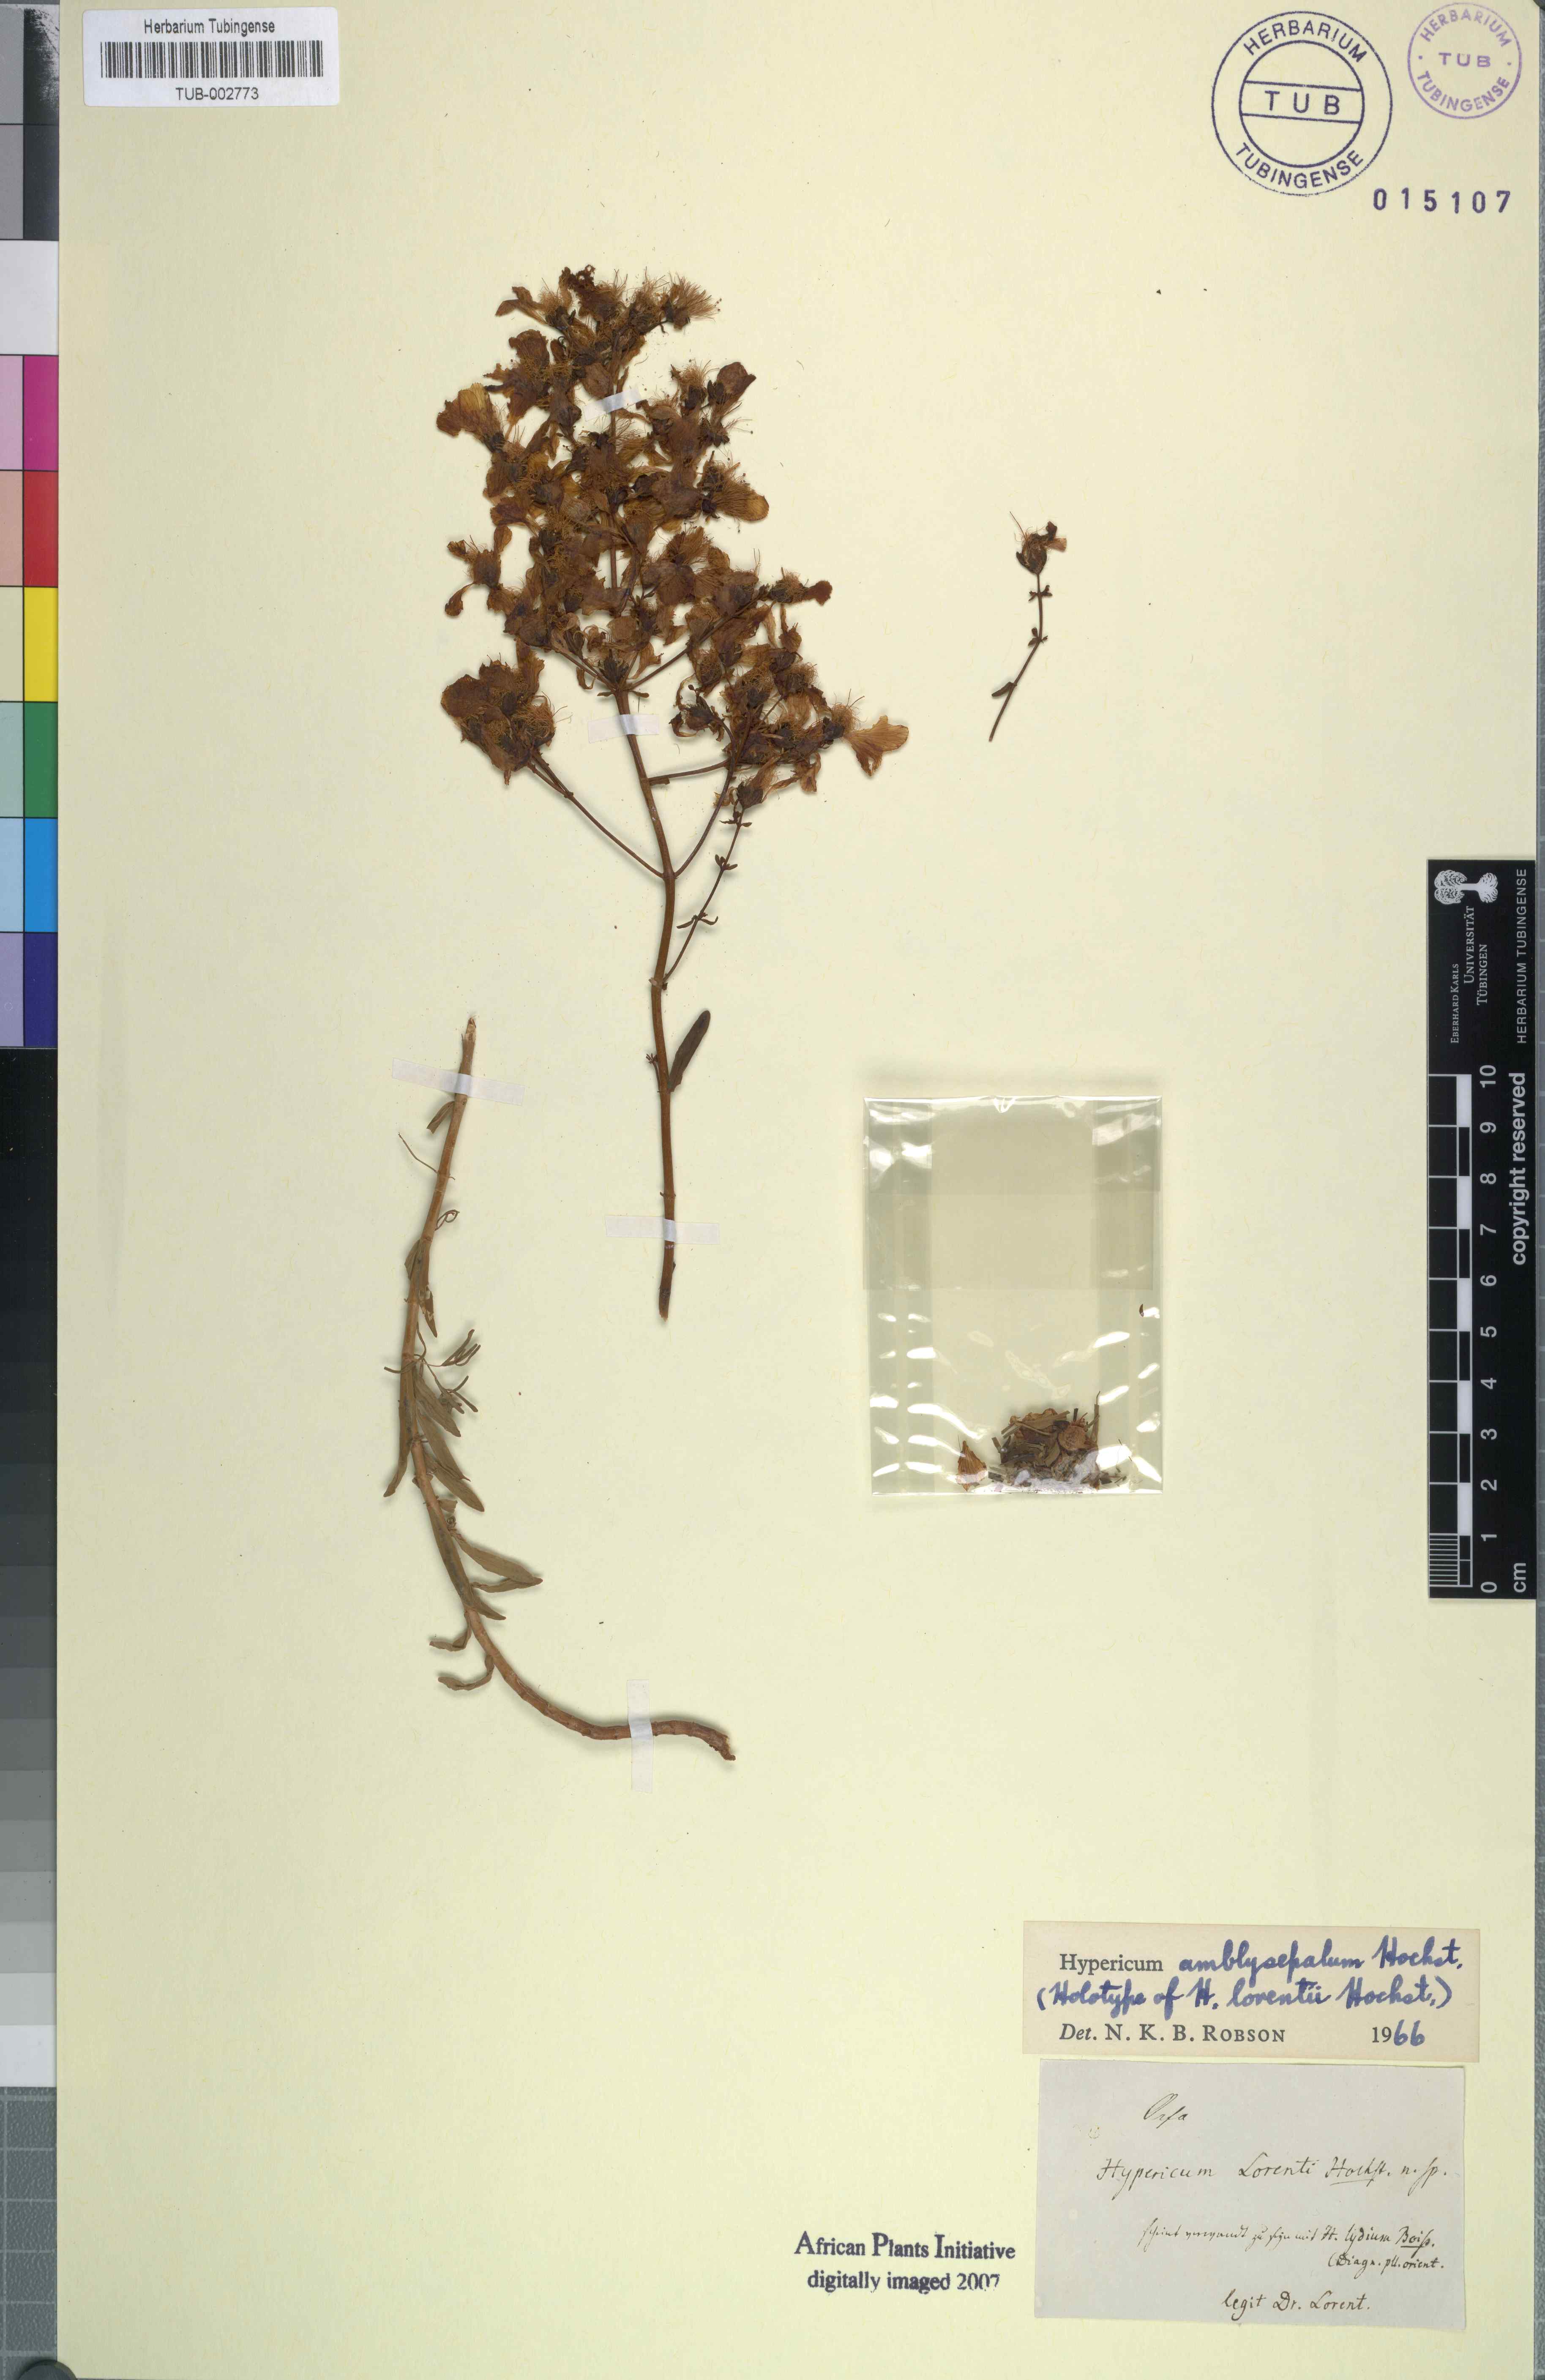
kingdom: Plantae
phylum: Tracheophyta
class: Magnoliopsida
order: Malpighiales
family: Hypericaceae
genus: Hypericum
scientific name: Hypericum amblysepalum
